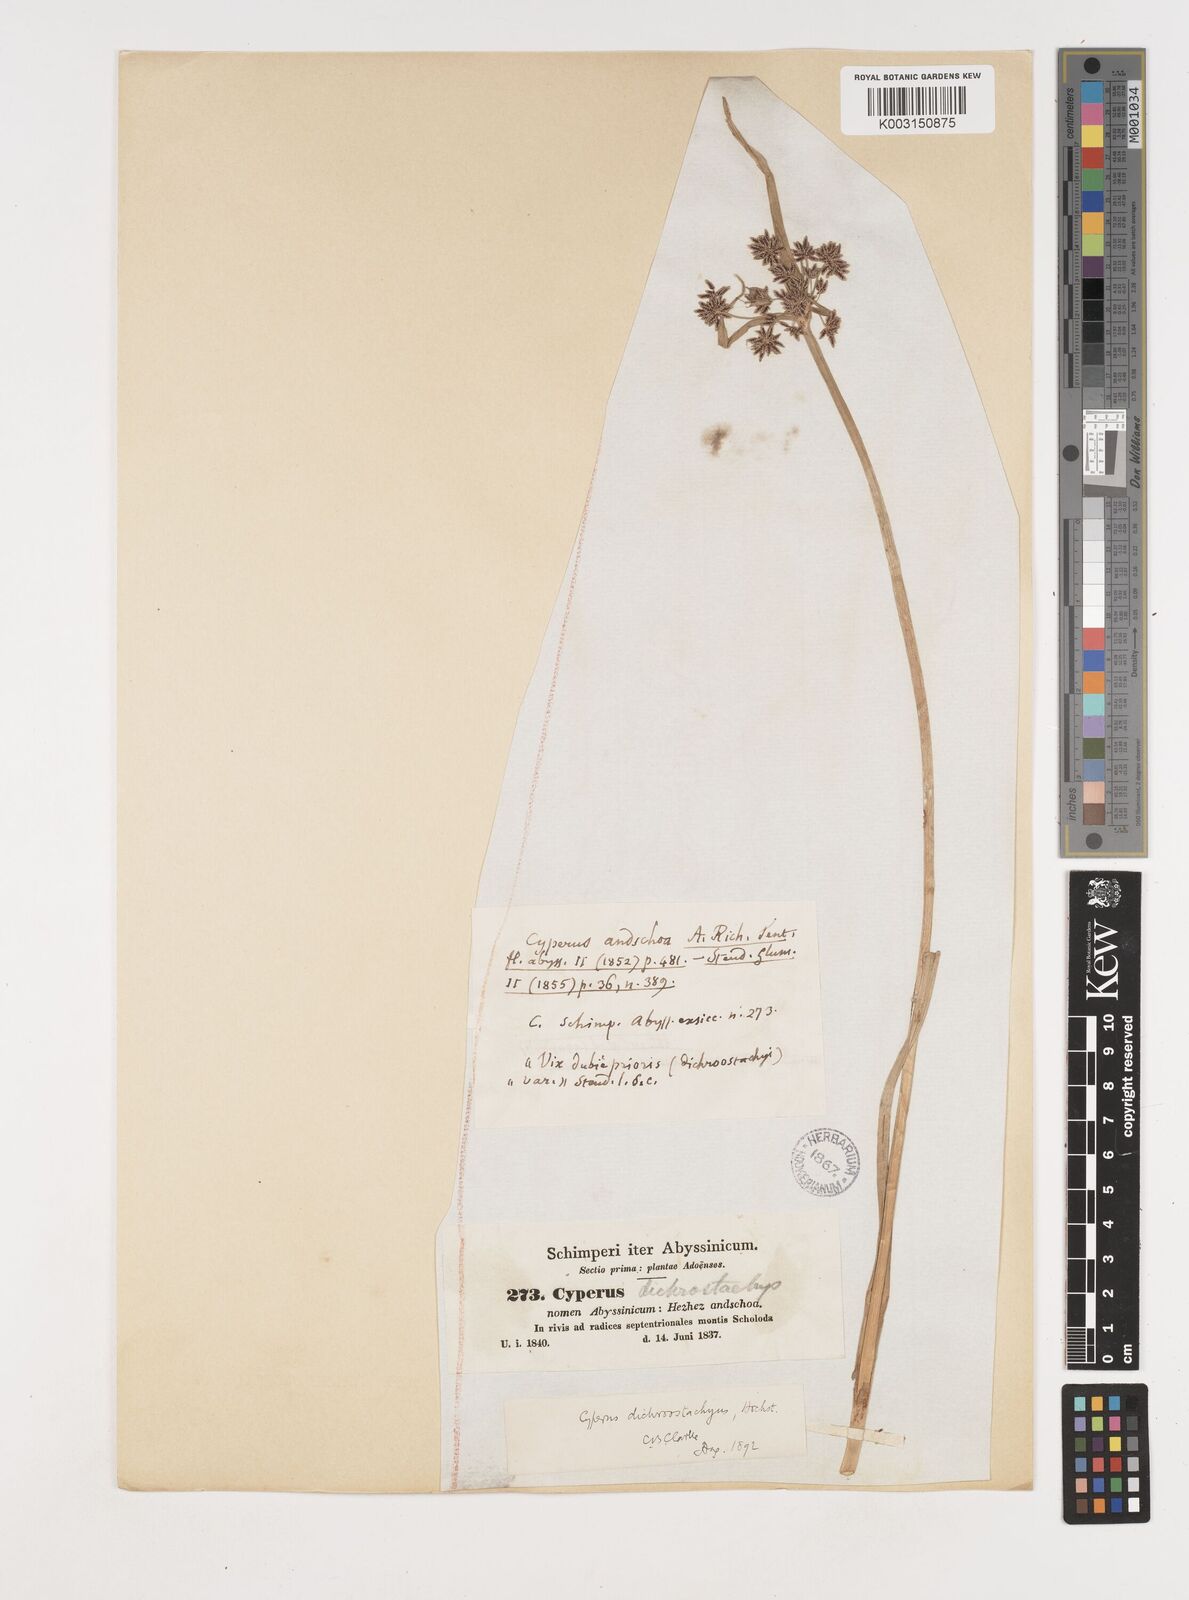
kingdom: Plantae
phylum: Tracheophyta
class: Liliopsida
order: Poales
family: Cyperaceae
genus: Cyperus
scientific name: Cyperus dichrostachyus
